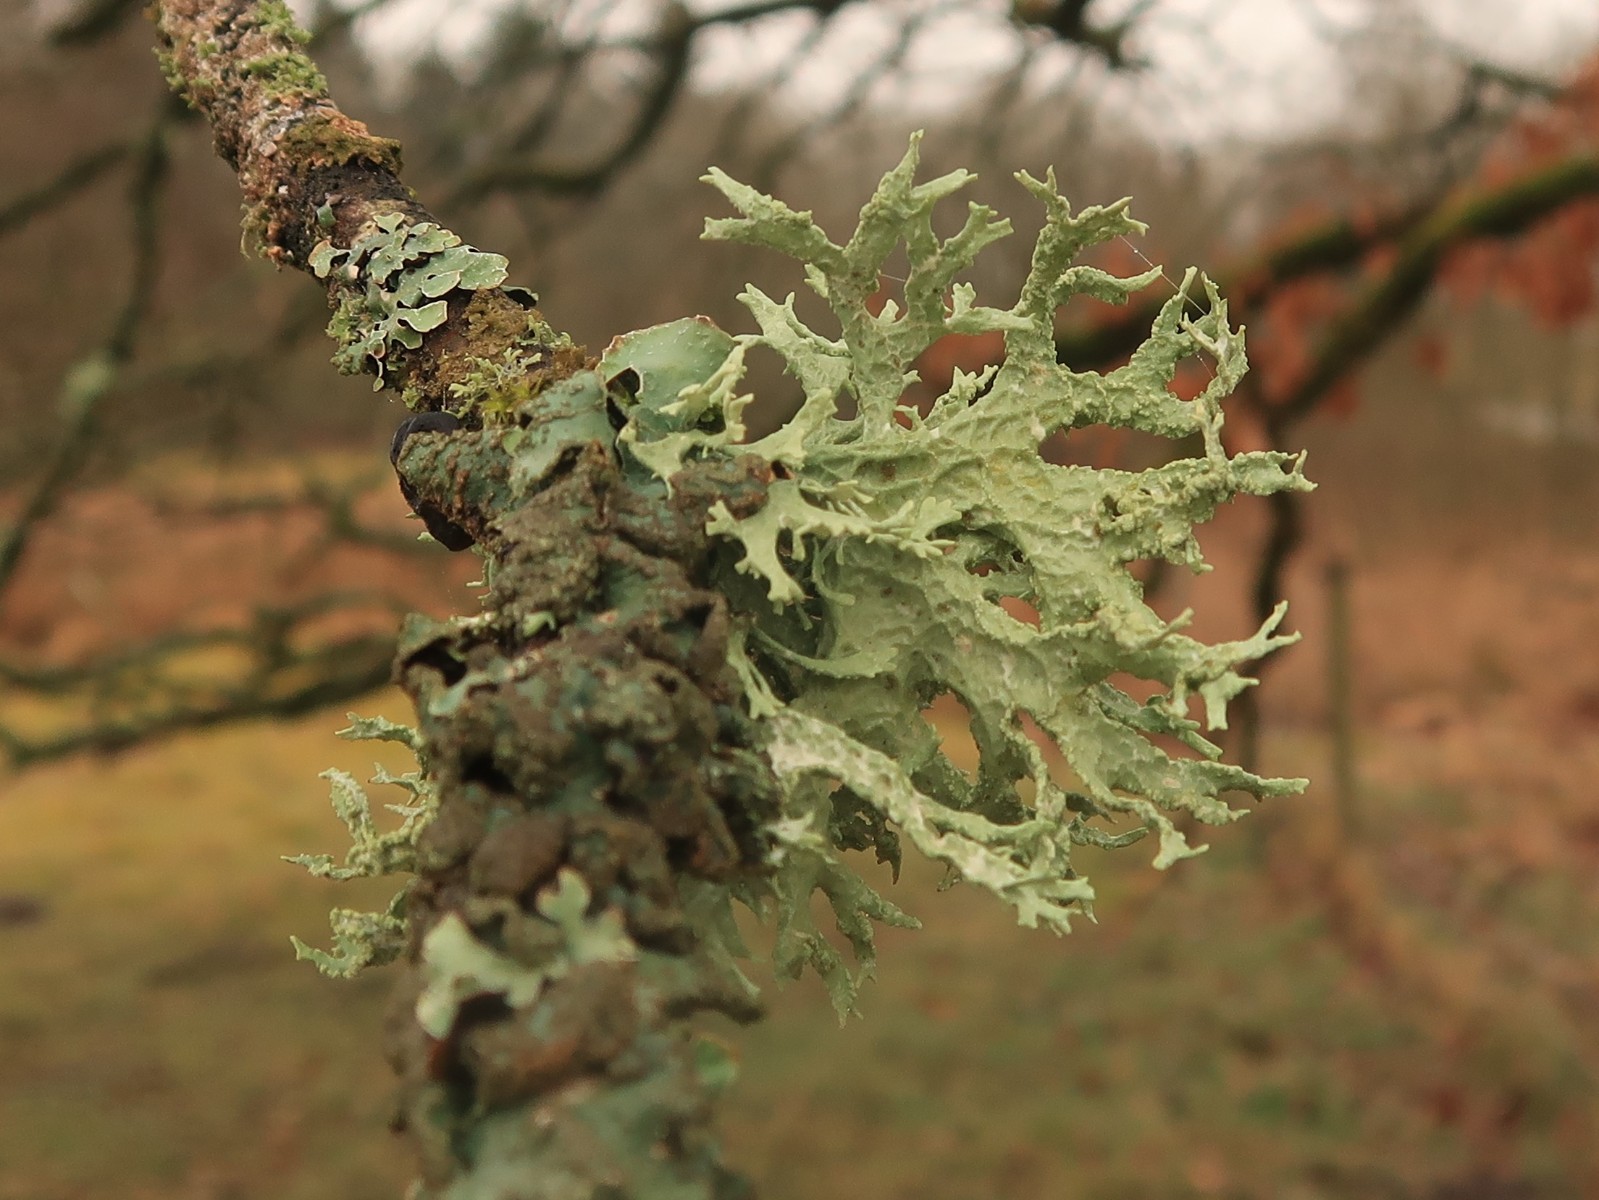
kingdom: Fungi
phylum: Ascomycota
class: Lecanoromycetes
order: Lecanorales
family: Parmeliaceae
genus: Evernia
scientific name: Evernia prunastri
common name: almindelig slåenlav
